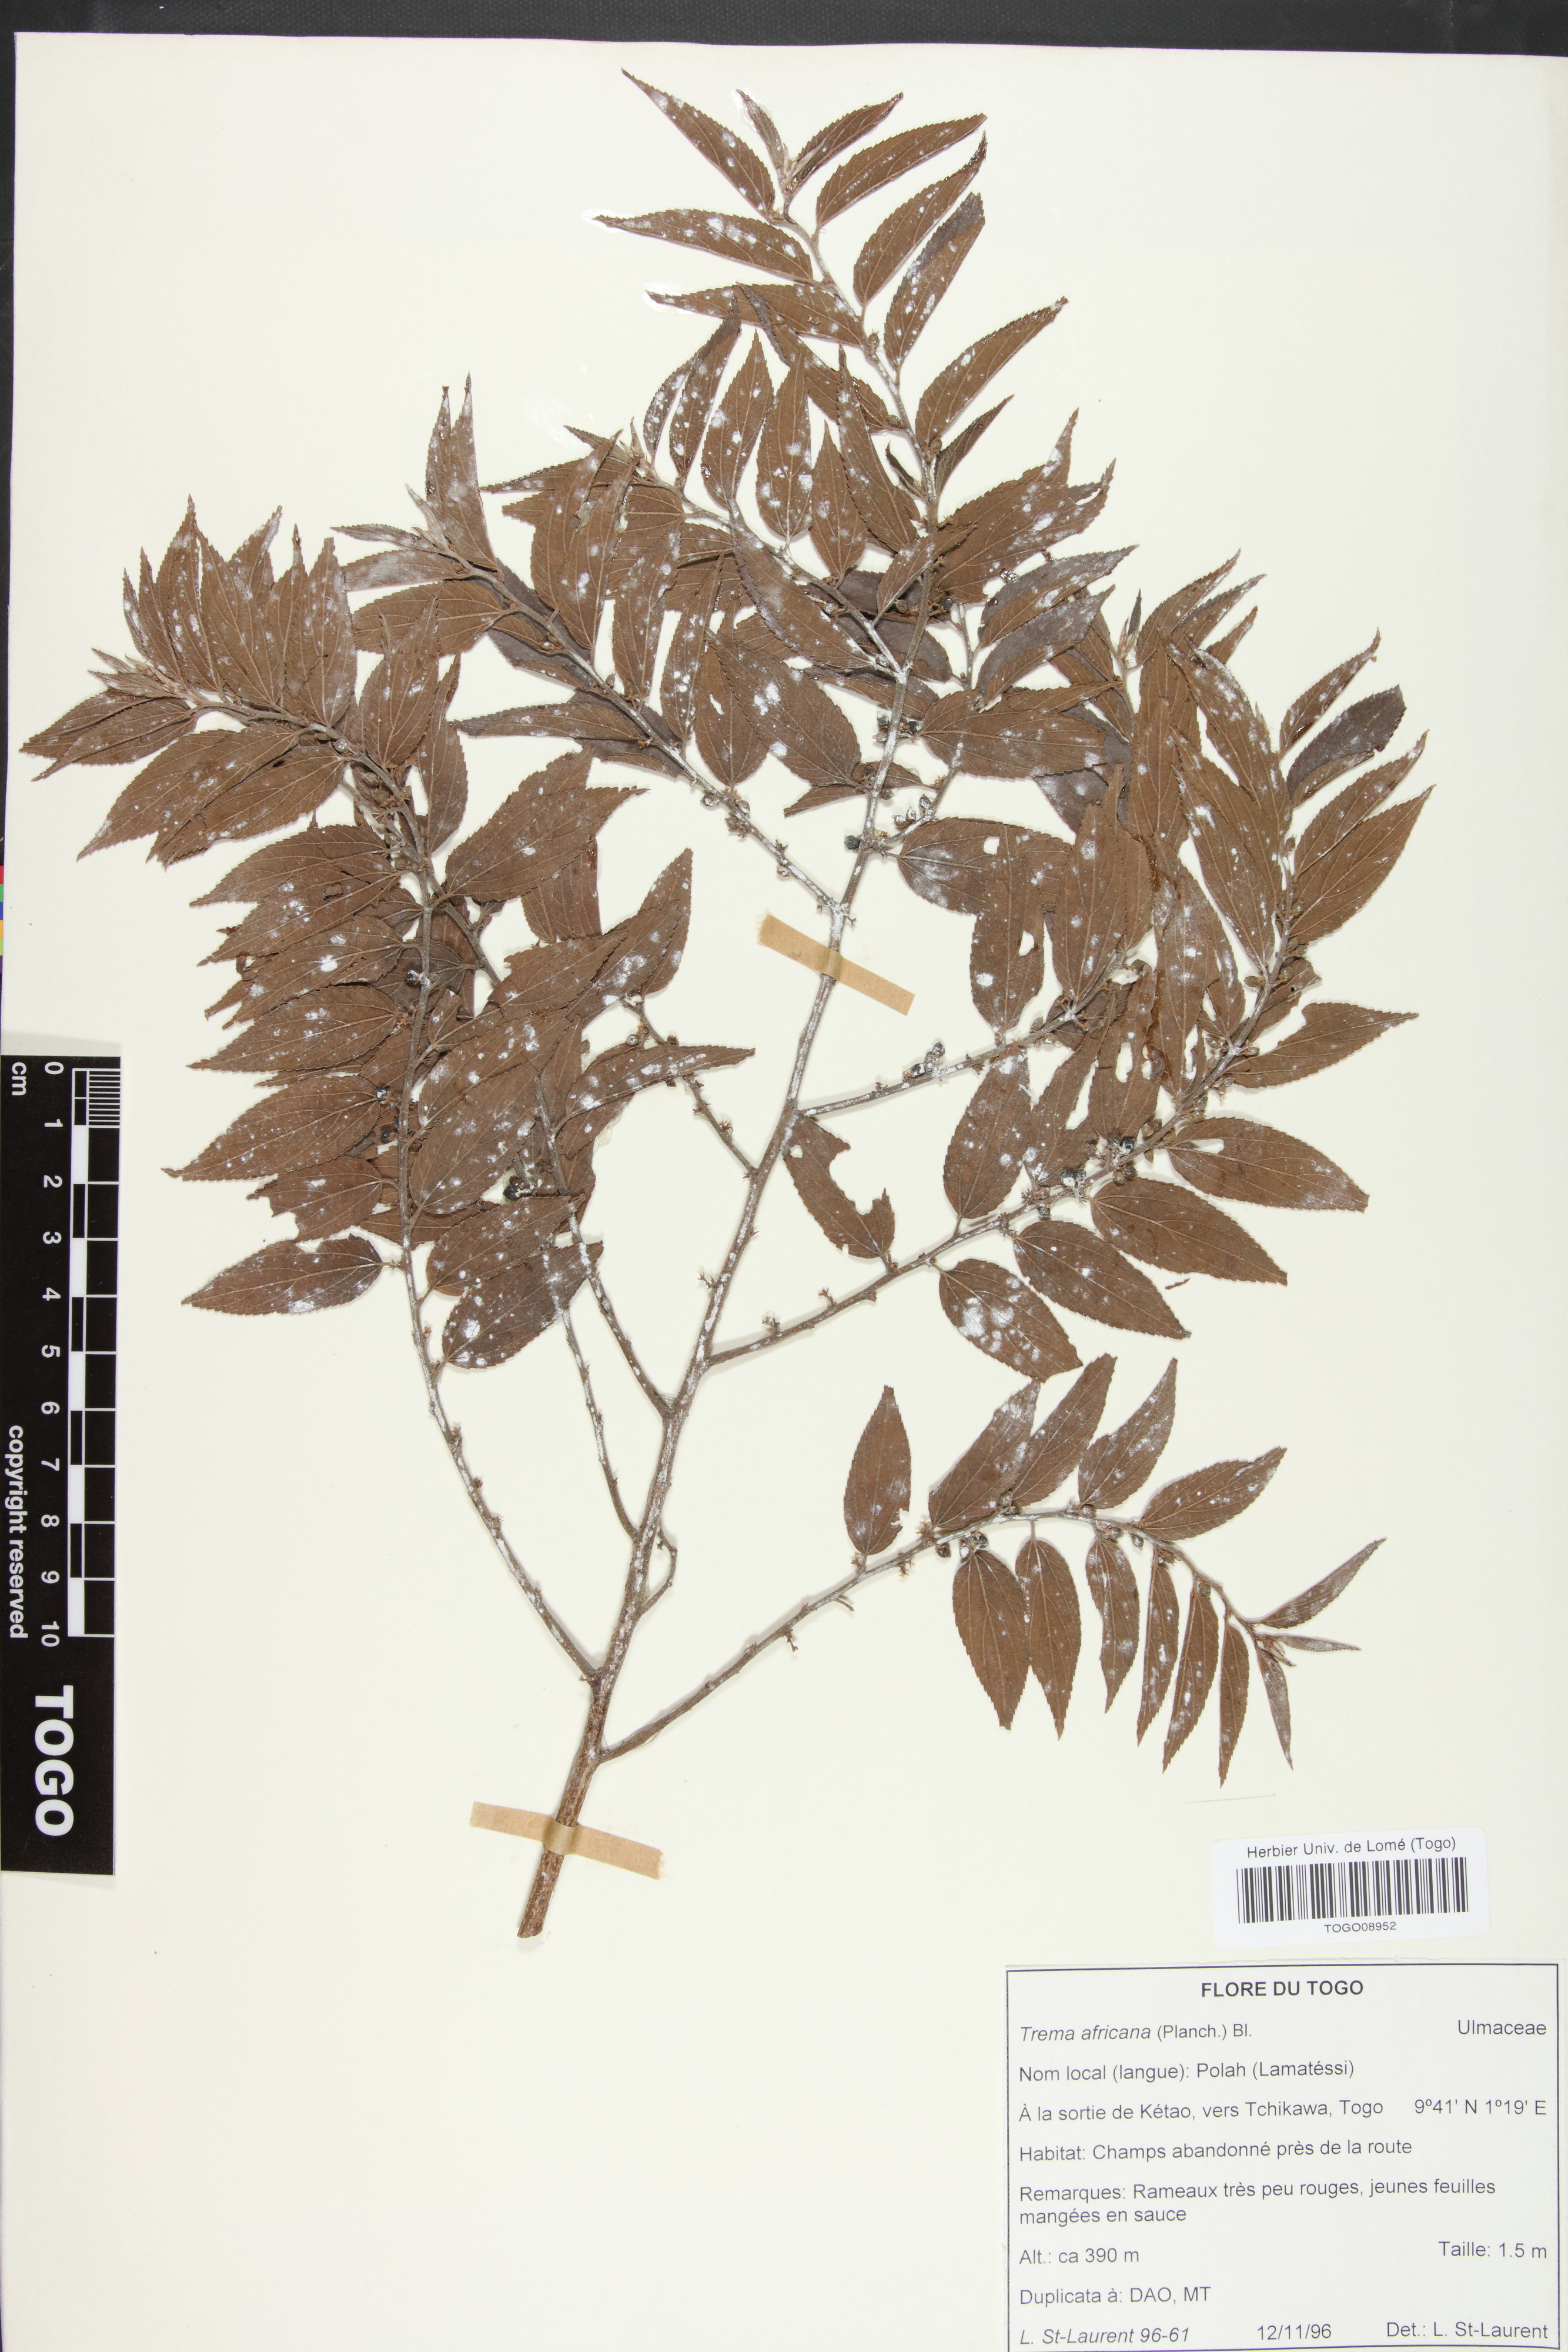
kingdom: Plantae
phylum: Tracheophyta
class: Magnoliopsida
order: Rosales
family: Cannabaceae
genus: Trema
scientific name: Trema orientale
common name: Indian charcoal tree
